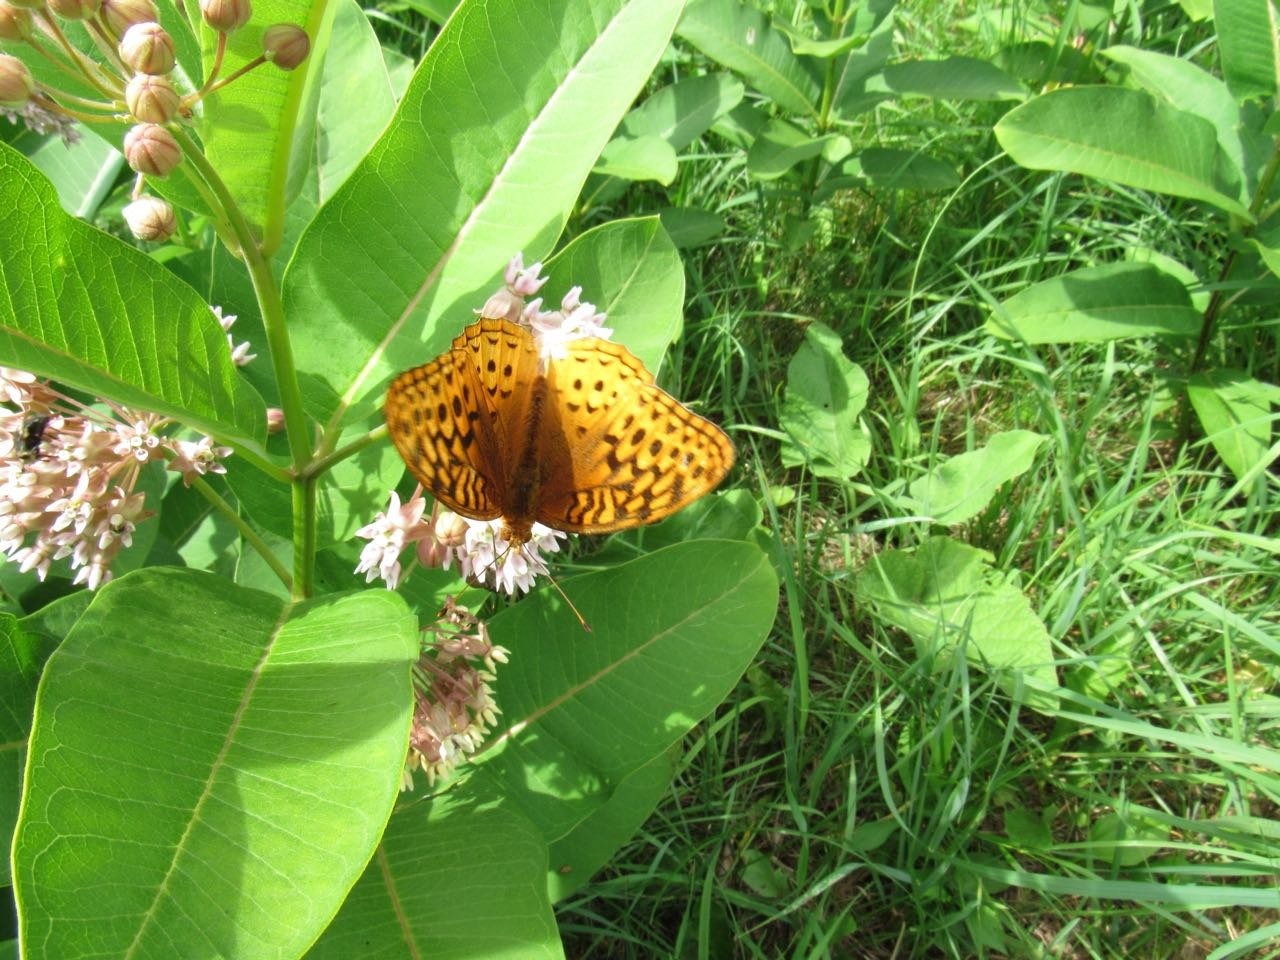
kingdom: Animalia
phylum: Arthropoda
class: Insecta
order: Lepidoptera
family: Nymphalidae
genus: Speyeria
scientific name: Speyeria cybele
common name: Great Spangled Fritillary
